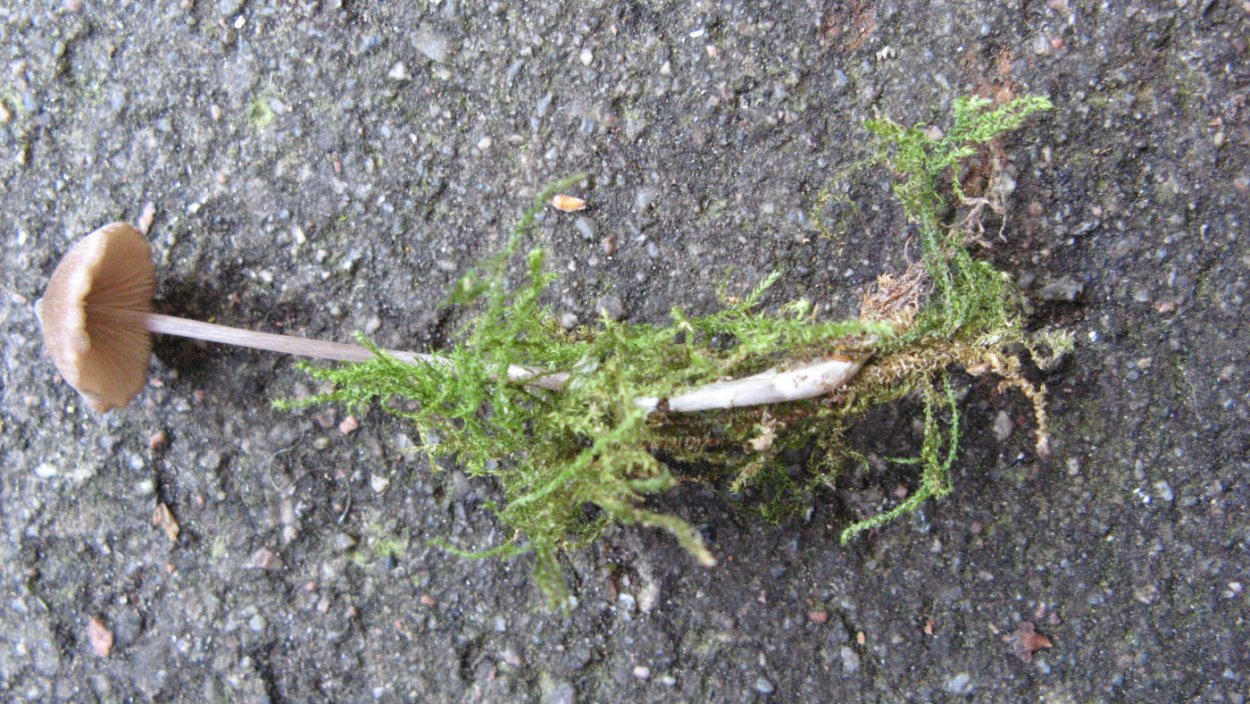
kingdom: Fungi
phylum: Basidiomycota
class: Agaricomycetes
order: Agaricales
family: Entolomataceae
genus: Entoloma
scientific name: Entoloma hebes
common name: krat-rødblad
